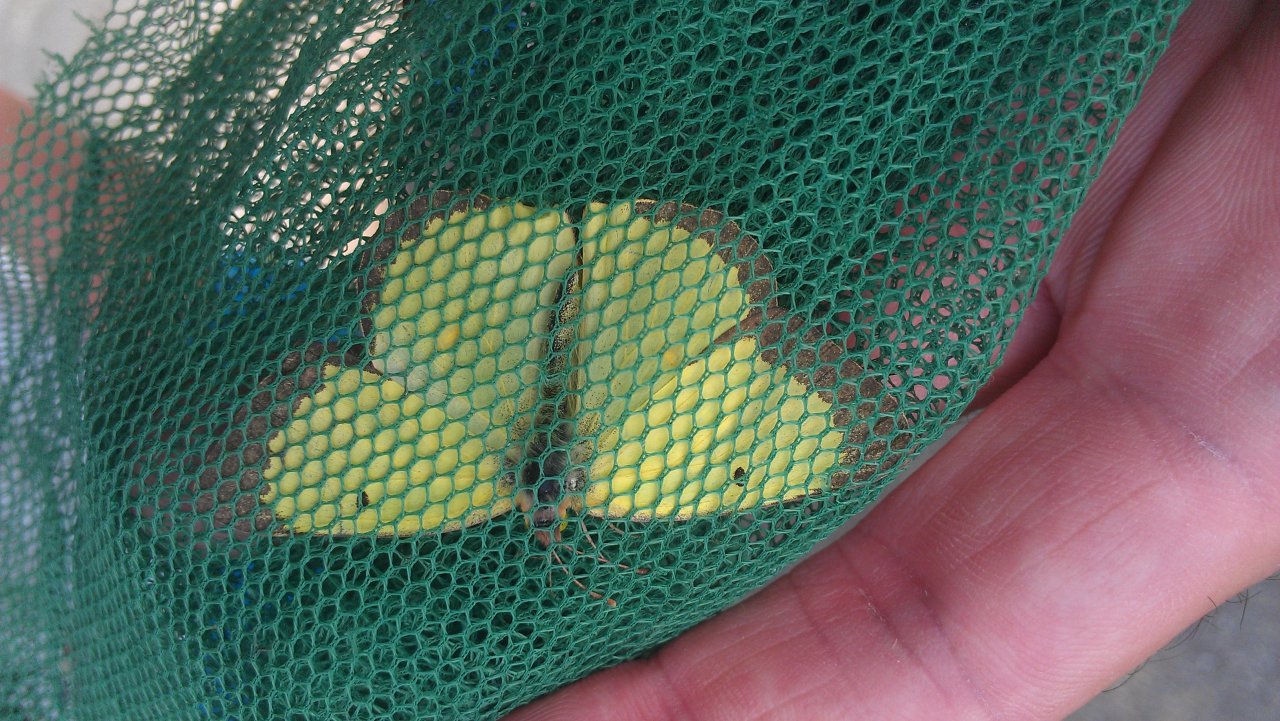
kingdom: Animalia
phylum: Arthropoda
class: Insecta
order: Lepidoptera
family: Pieridae
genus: Colias
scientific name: Colias philodice
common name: Clouded Sulphur
